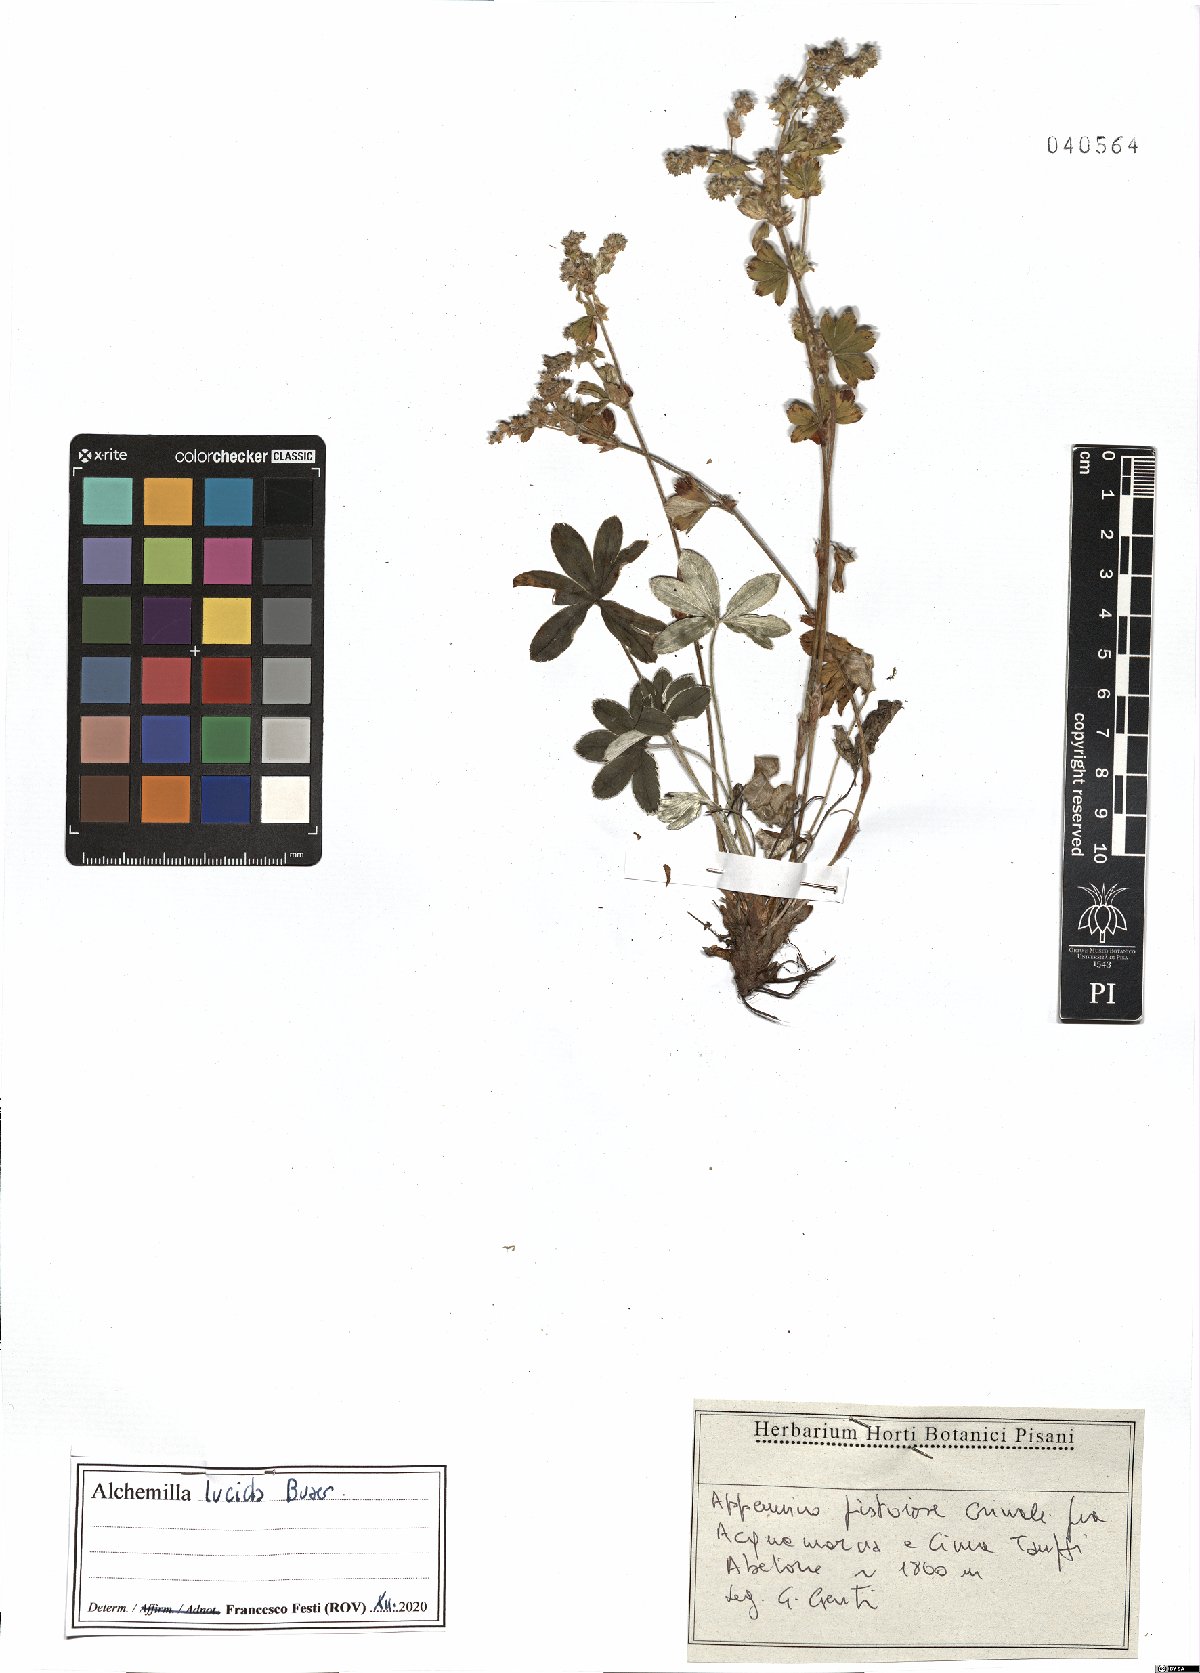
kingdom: Plantae
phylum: Tracheophyta
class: Magnoliopsida
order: Rosales
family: Rosaceae
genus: Alchemilla
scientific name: Alchemilla lucida
